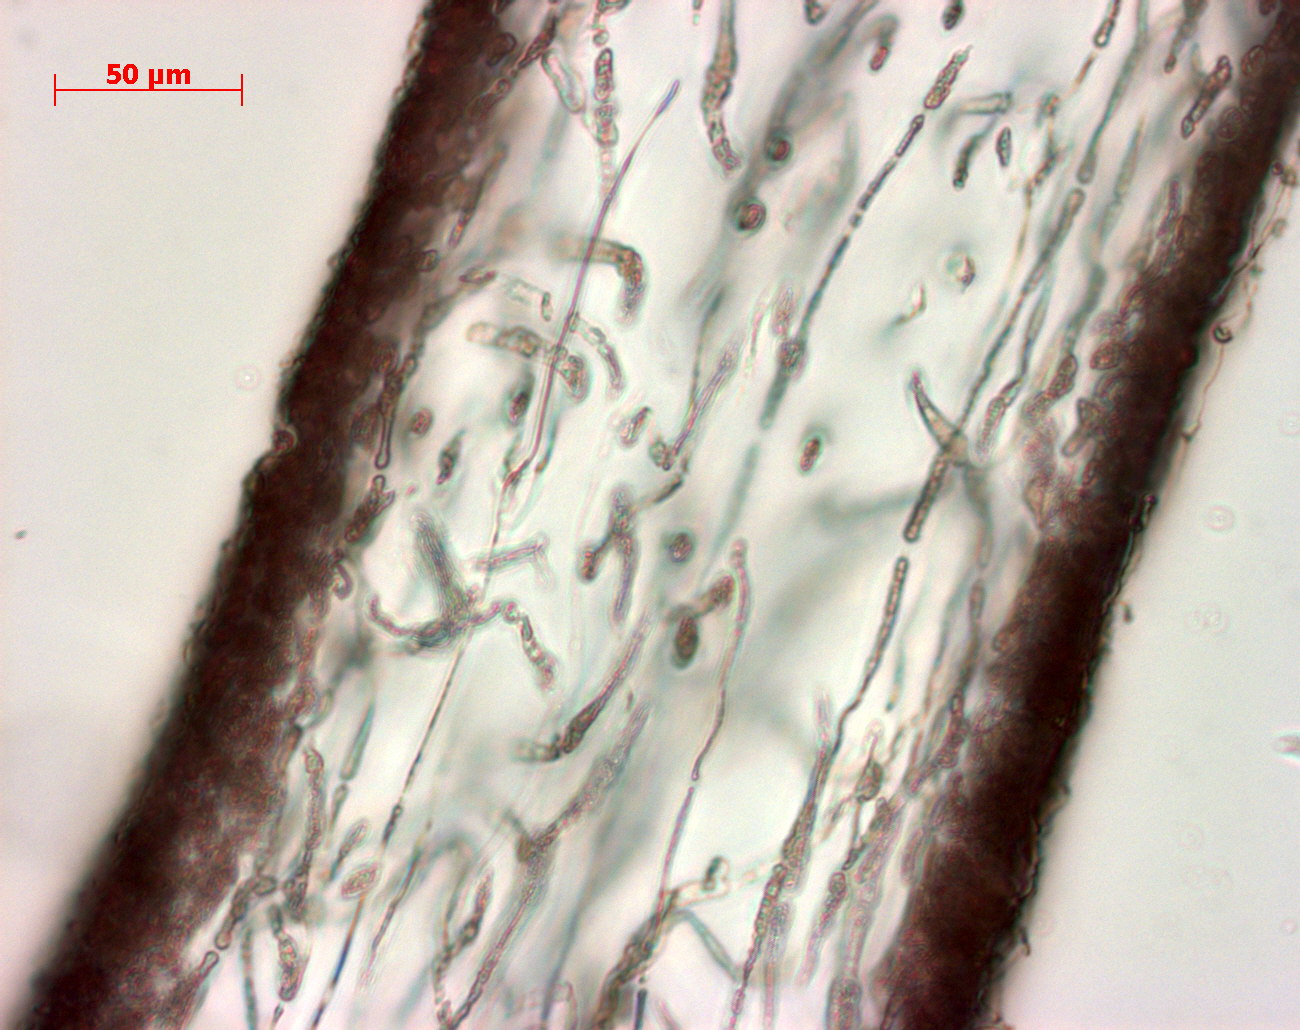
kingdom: Plantae
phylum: Rhodophyta
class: Florideophyceae
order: Halymeniales
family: Halymeniaceae
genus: Amalthea
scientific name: Amalthea freemaniae
